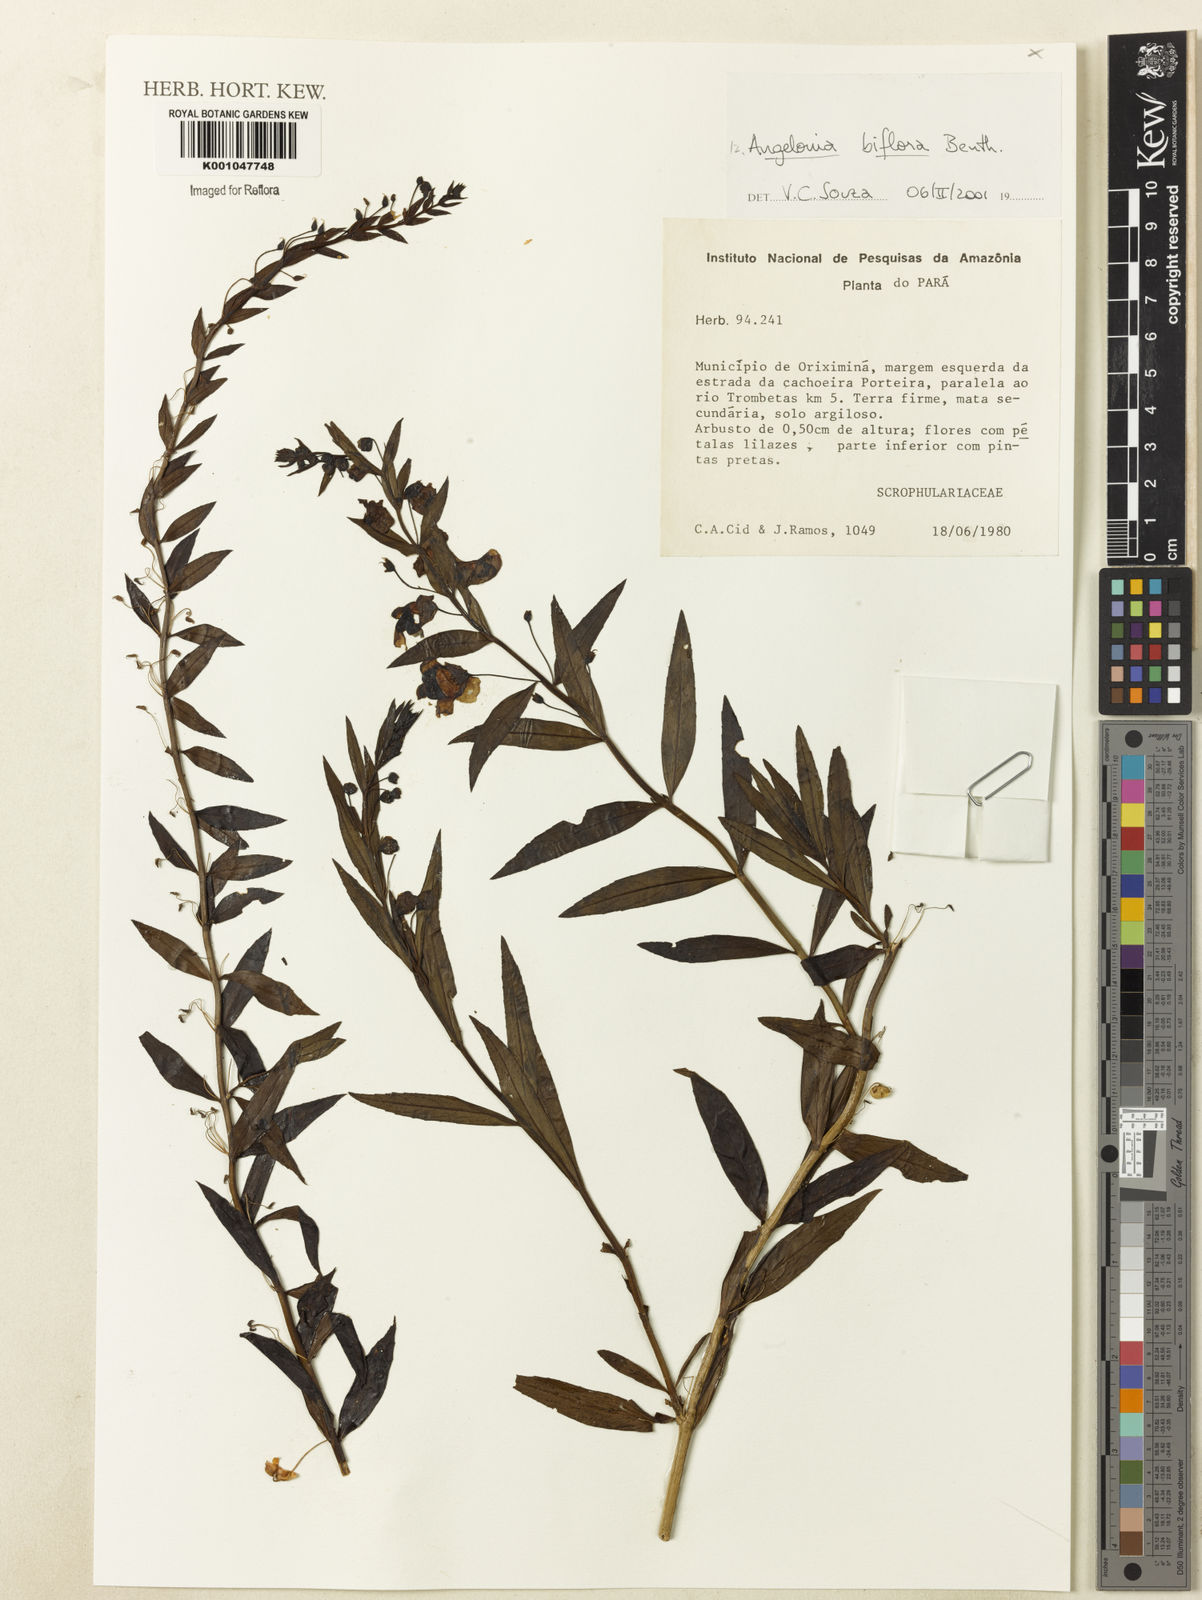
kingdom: Plantae
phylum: Tracheophyta
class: Magnoliopsida
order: Lamiales
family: Plantaginaceae
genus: Angelonia
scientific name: Angelonia biflora
